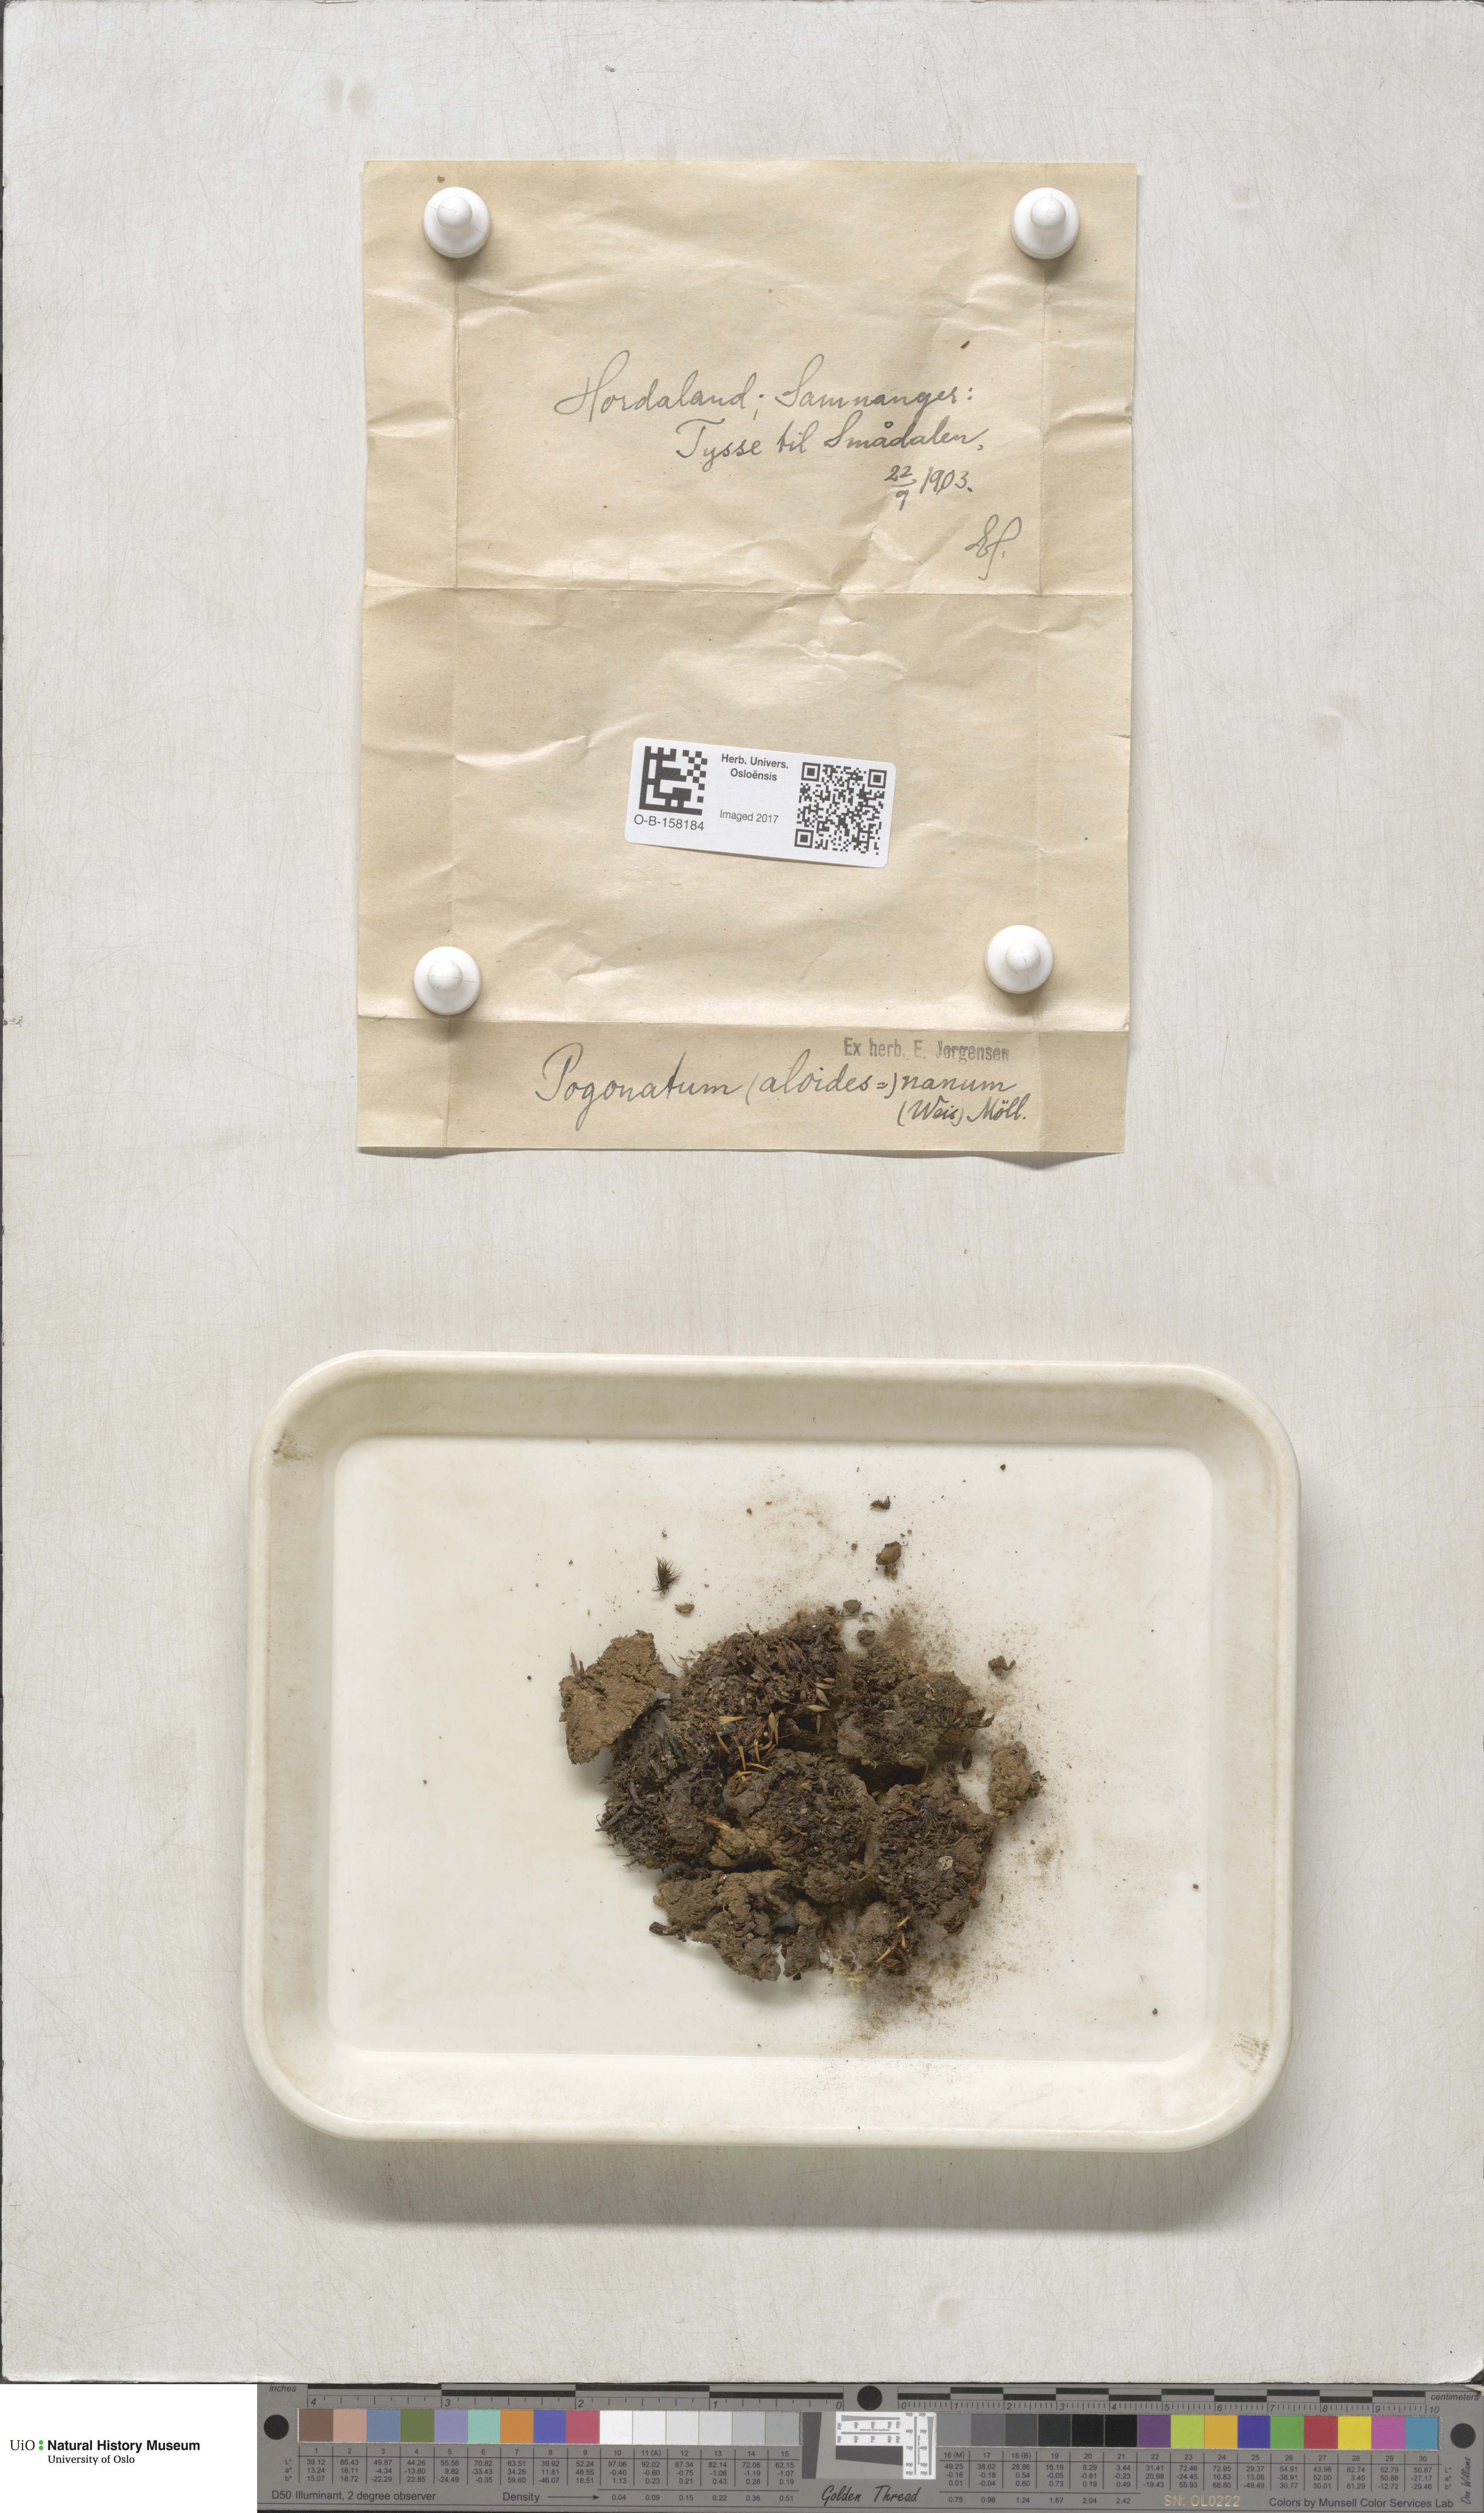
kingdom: Plantae
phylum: Bryophyta
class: Polytrichopsida
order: Polytrichales
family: Polytrichaceae
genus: Pogonatum
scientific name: Pogonatum aloides
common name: Aloe haircap
